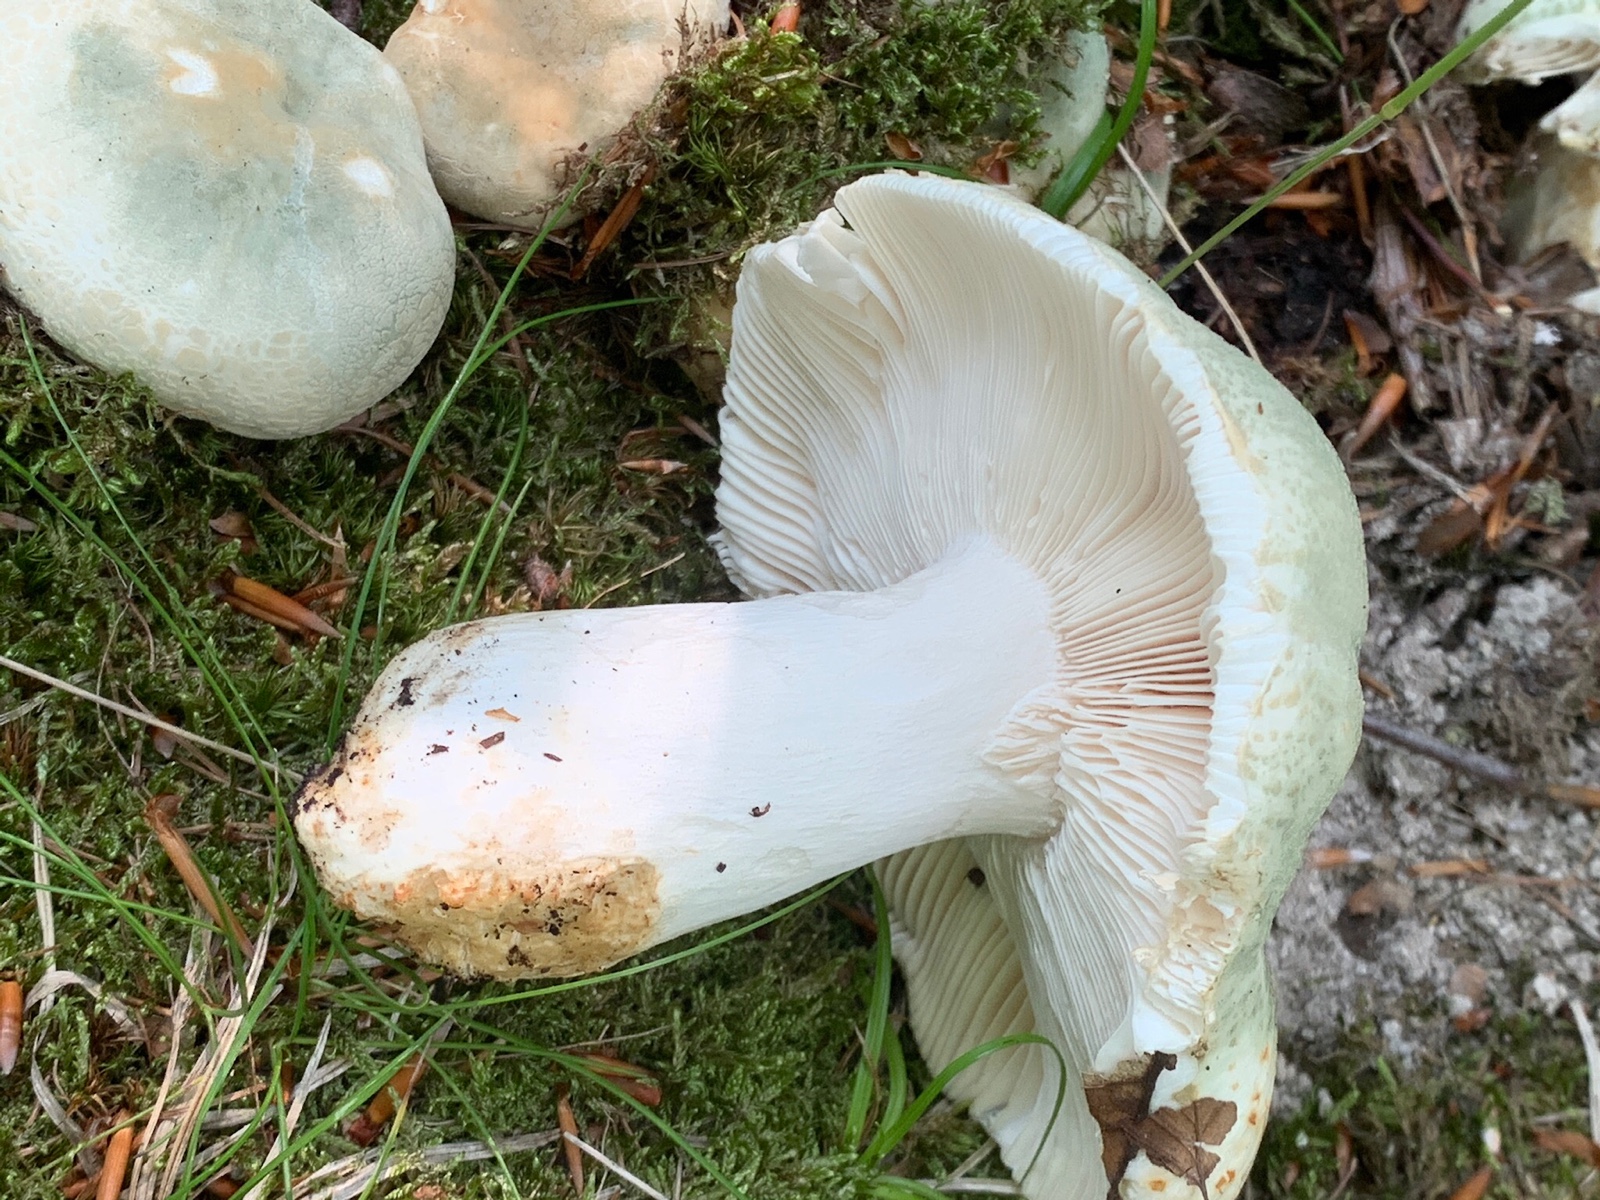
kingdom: Fungi
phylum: Basidiomycota
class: Agaricomycetes
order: Russulales
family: Russulaceae
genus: Russula
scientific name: Russula virescens
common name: spanskgrøn skørhat
